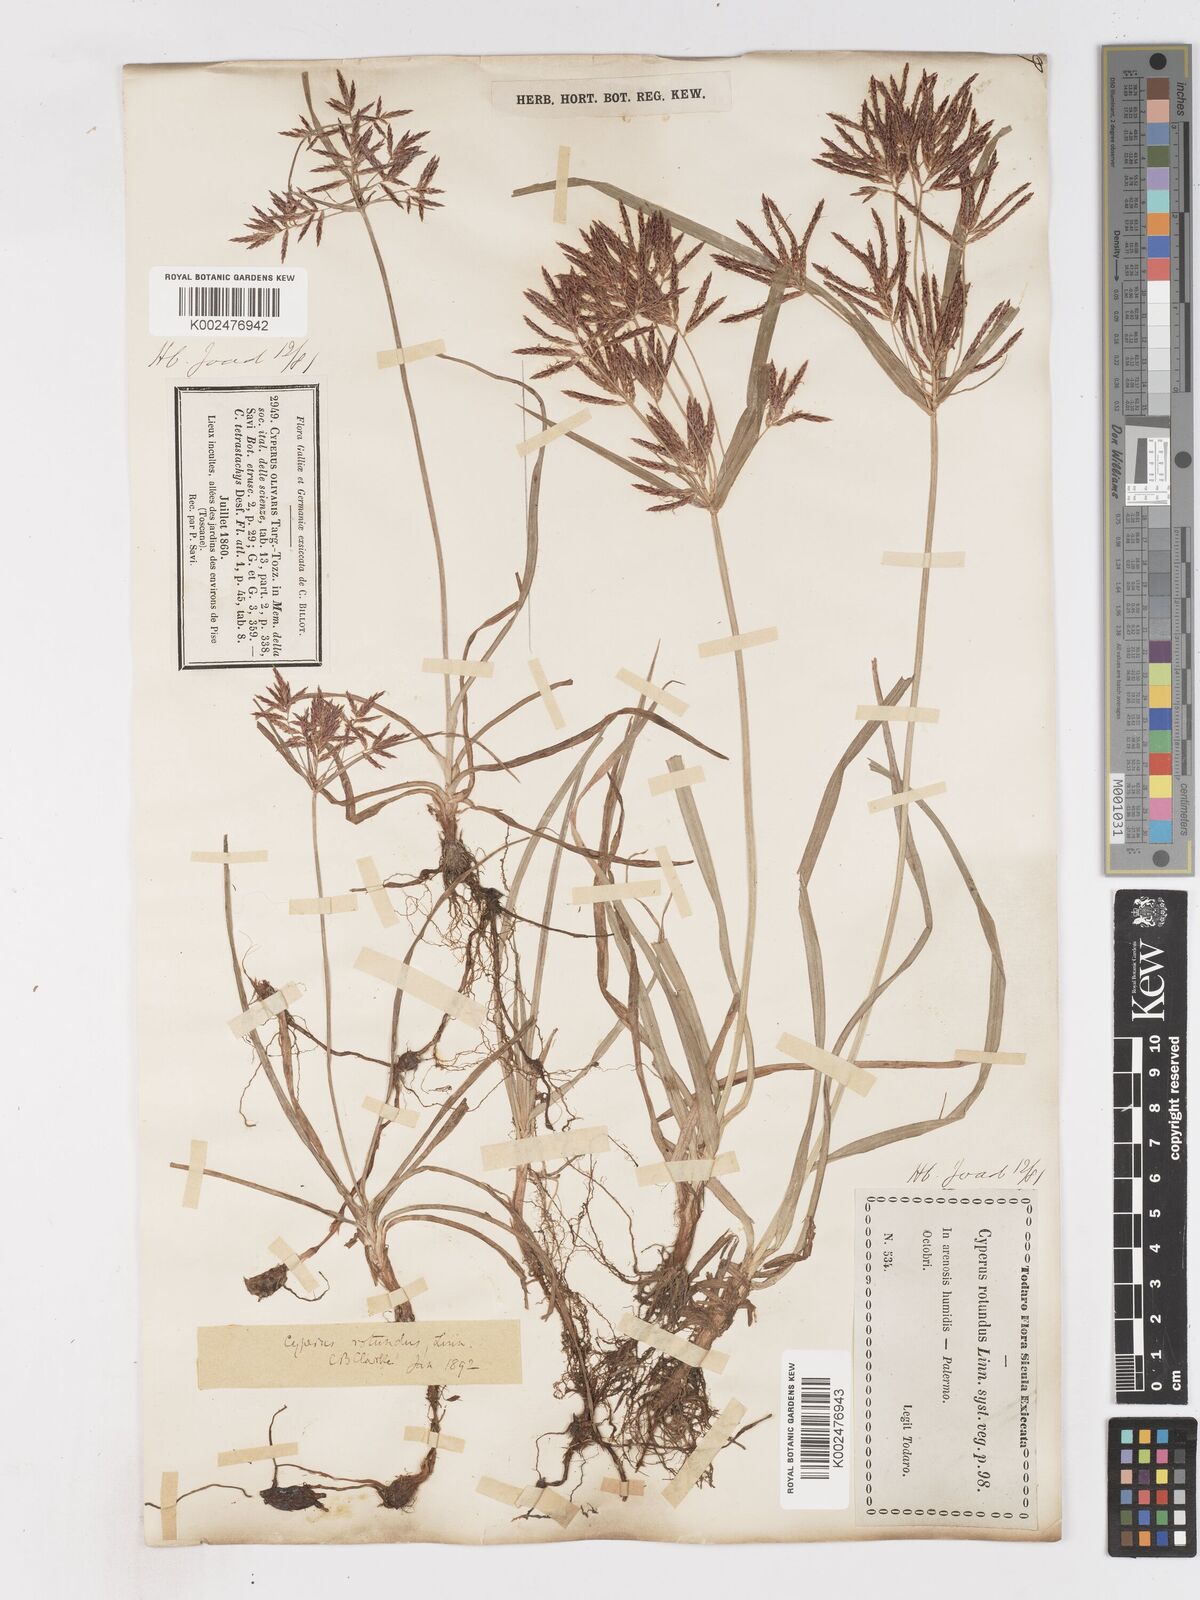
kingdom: Plantae
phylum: Tracheophyta
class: Liliopsida
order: Poales
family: Cyperaceae
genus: Cyperus
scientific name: Cyperus rotundus
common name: Nutgrass
